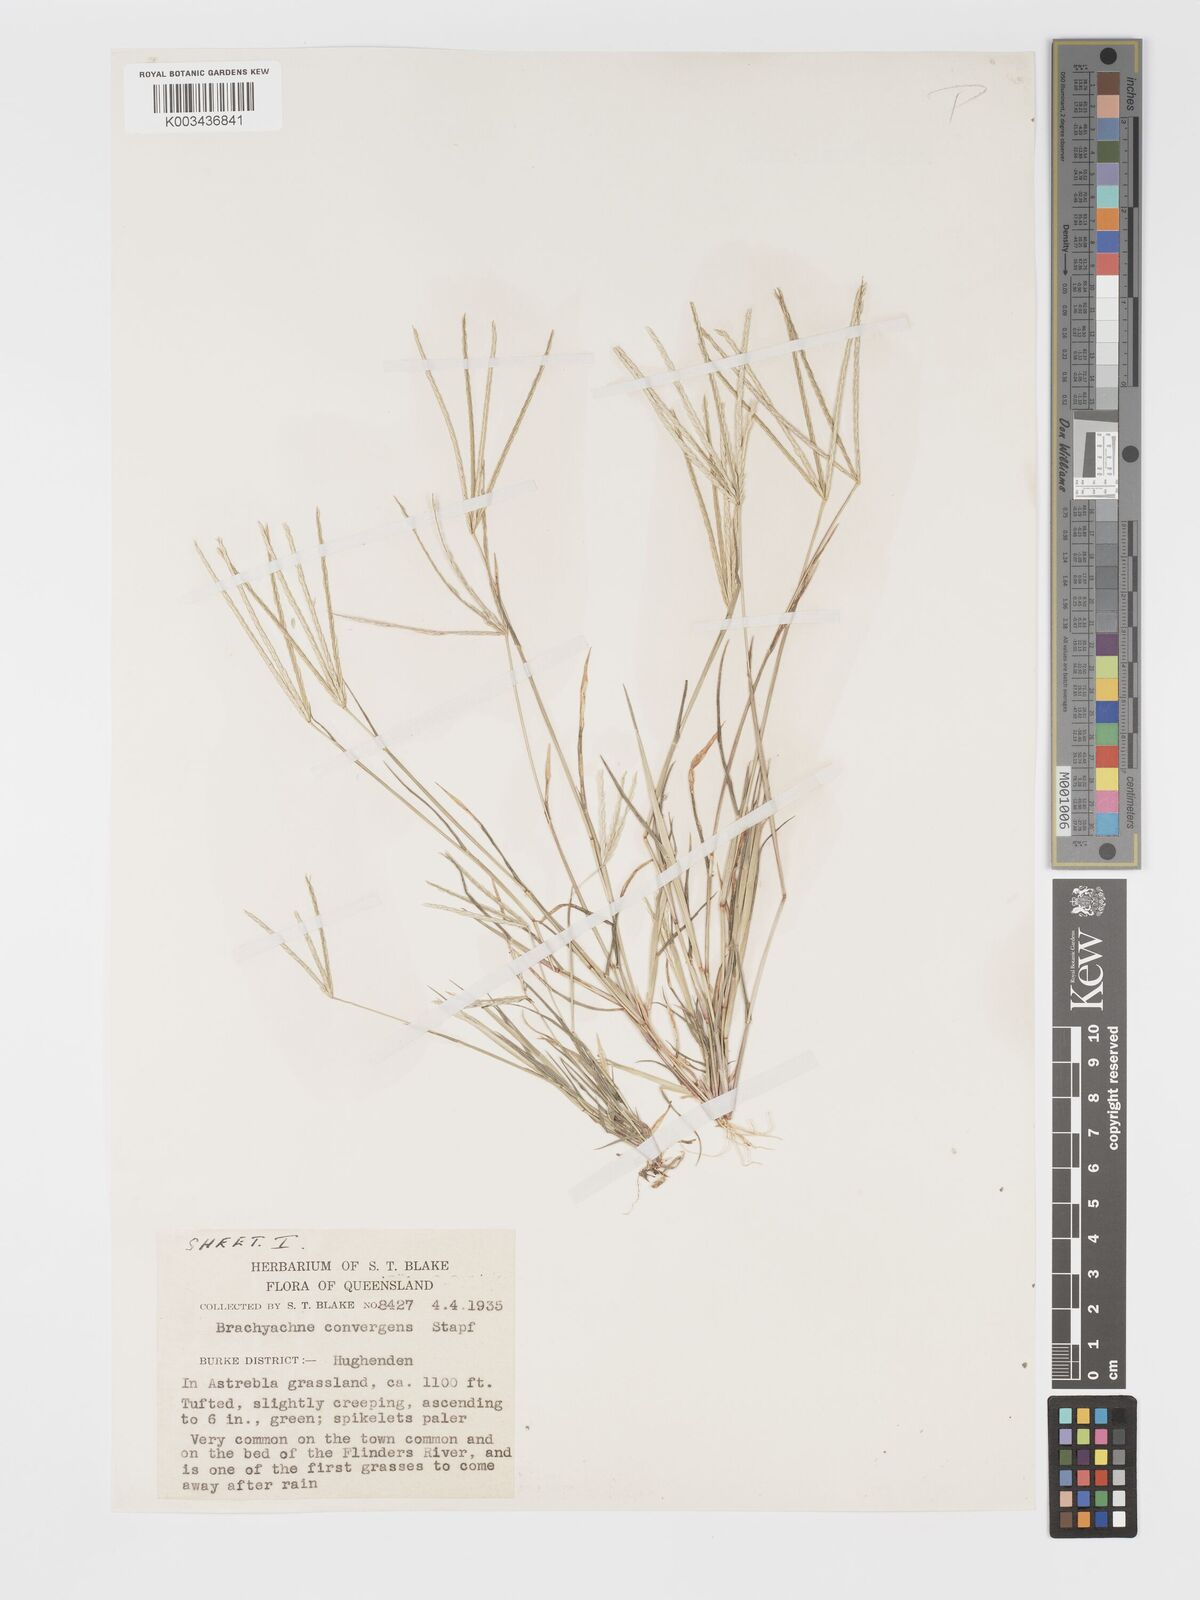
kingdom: Plantae
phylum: Tracheophyta
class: Liliopsida
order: Poales
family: Poaceae
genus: Cynodon
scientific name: Cynodon convergens
